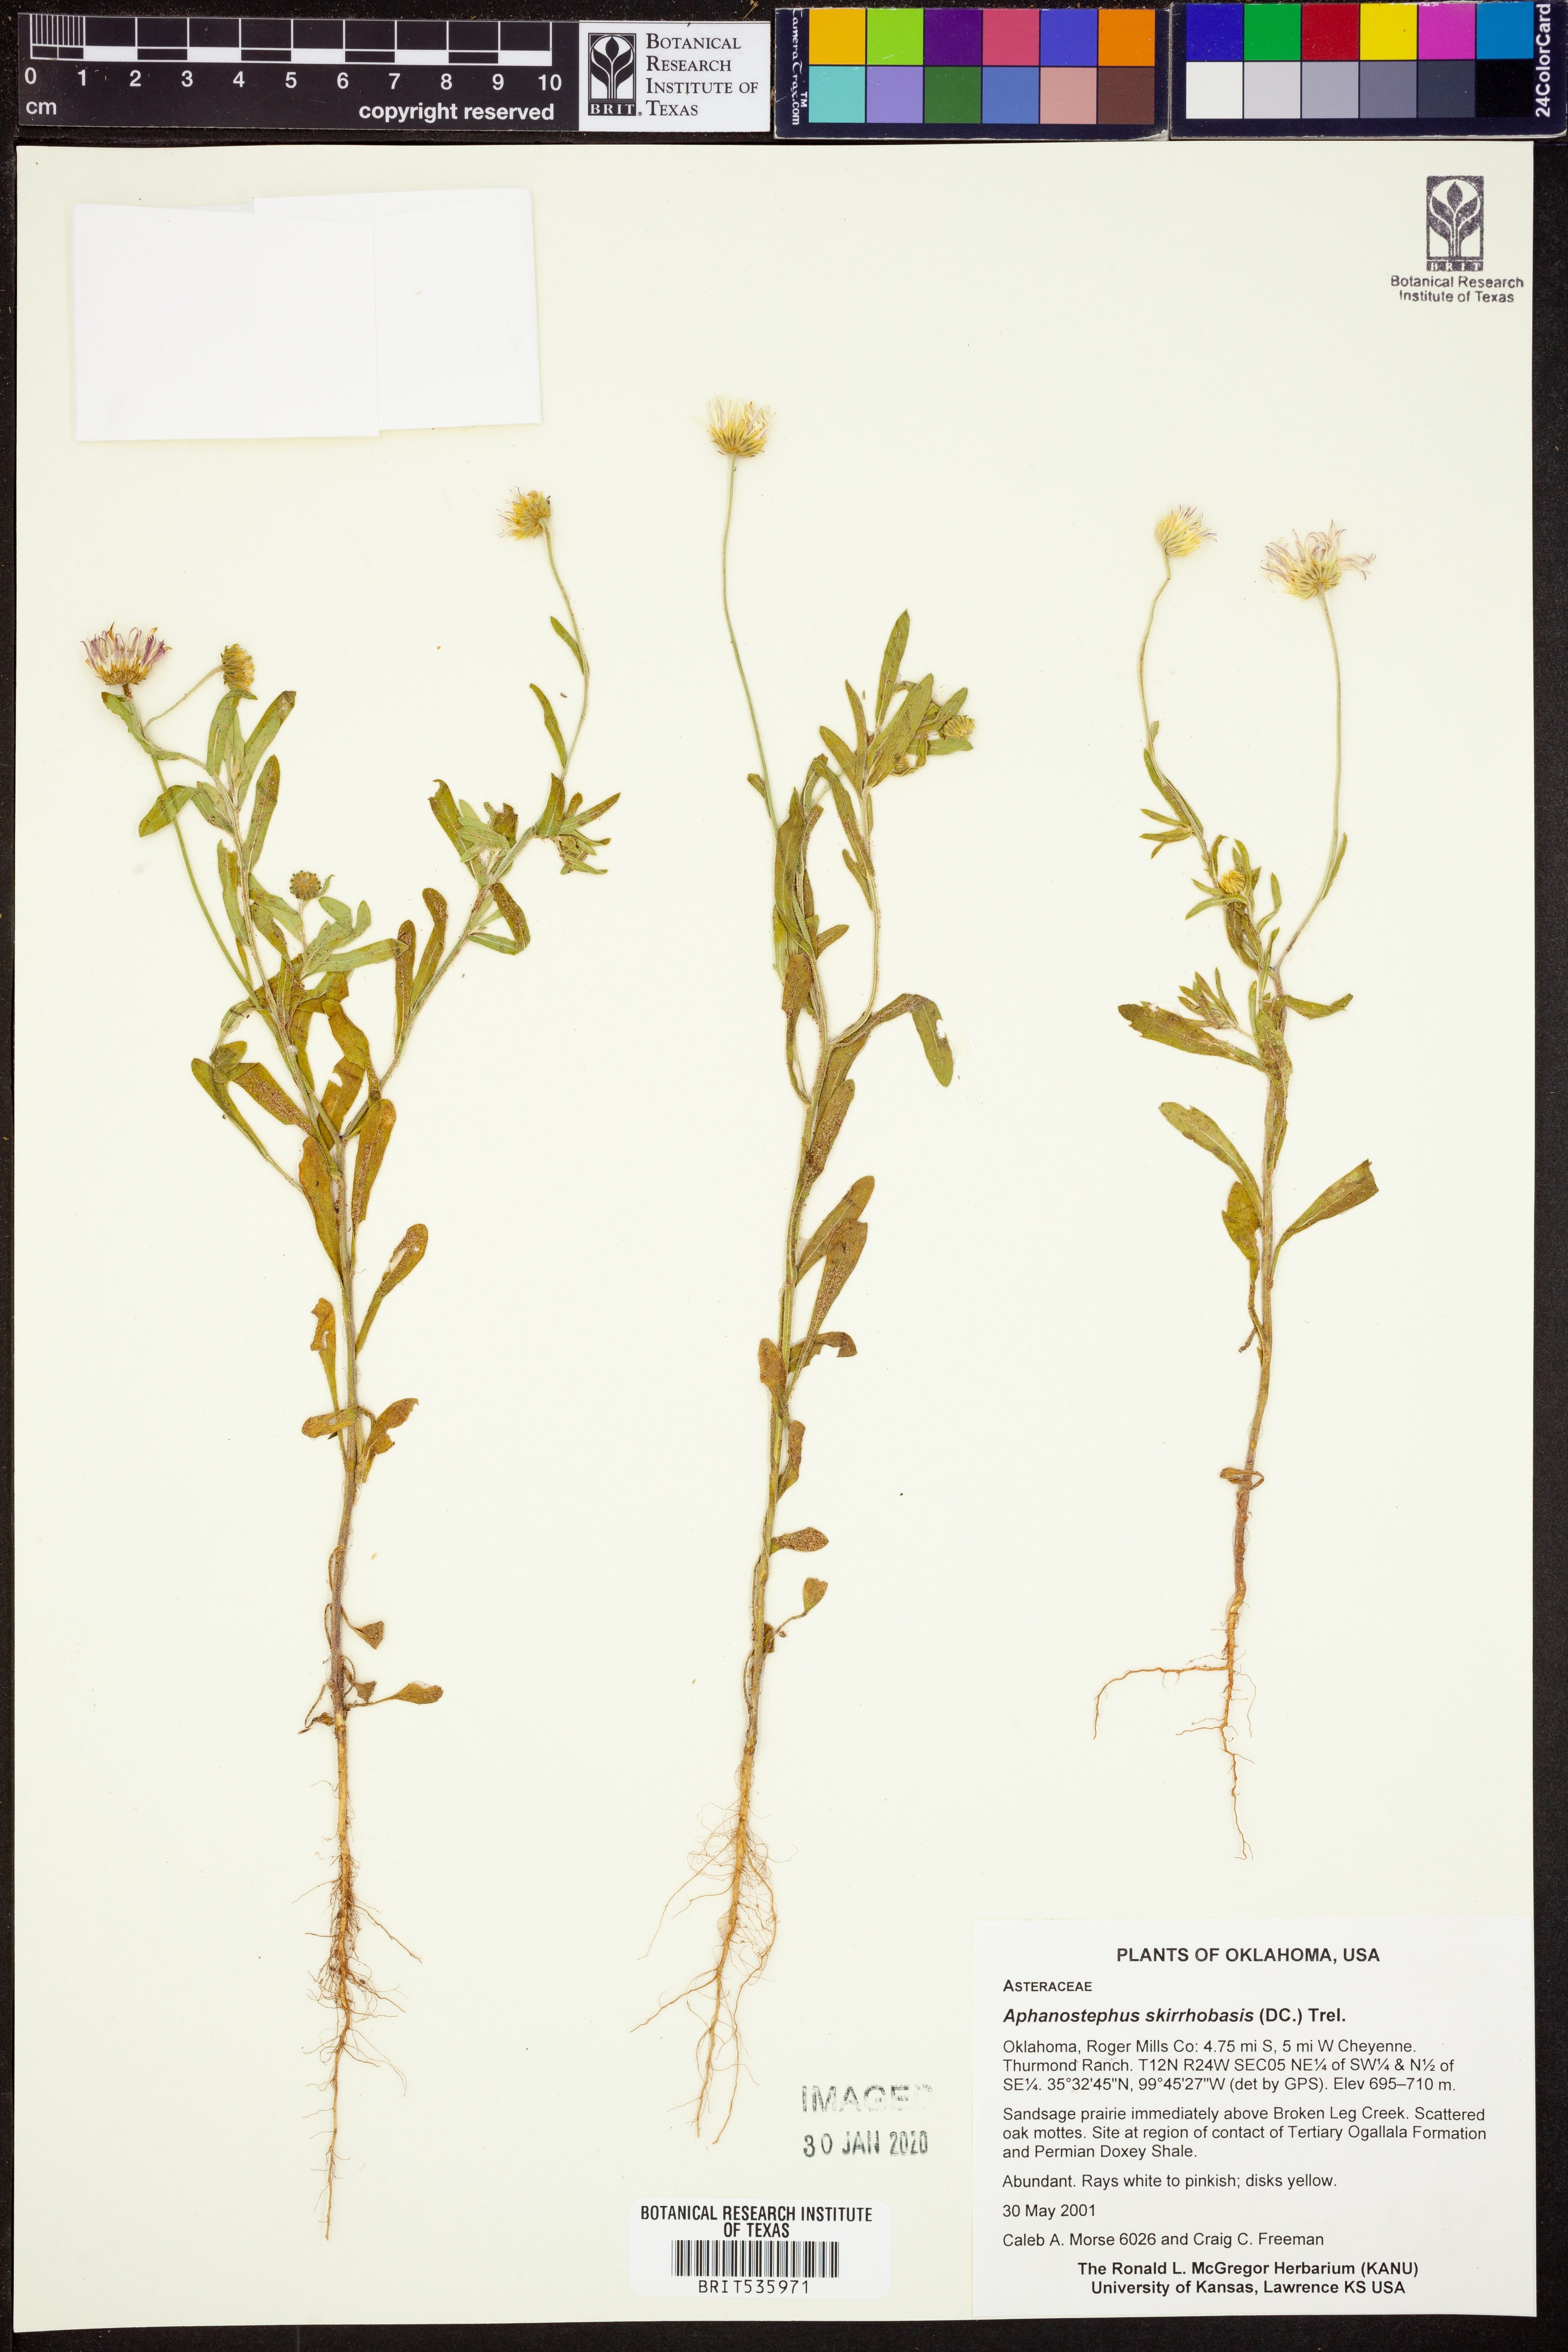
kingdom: Plantae
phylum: Tracheophyta
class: Magnoliopsida
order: Asterales
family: Asteraceae
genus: Aphanostephus
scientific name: Aphanostephus skirrhobasis
